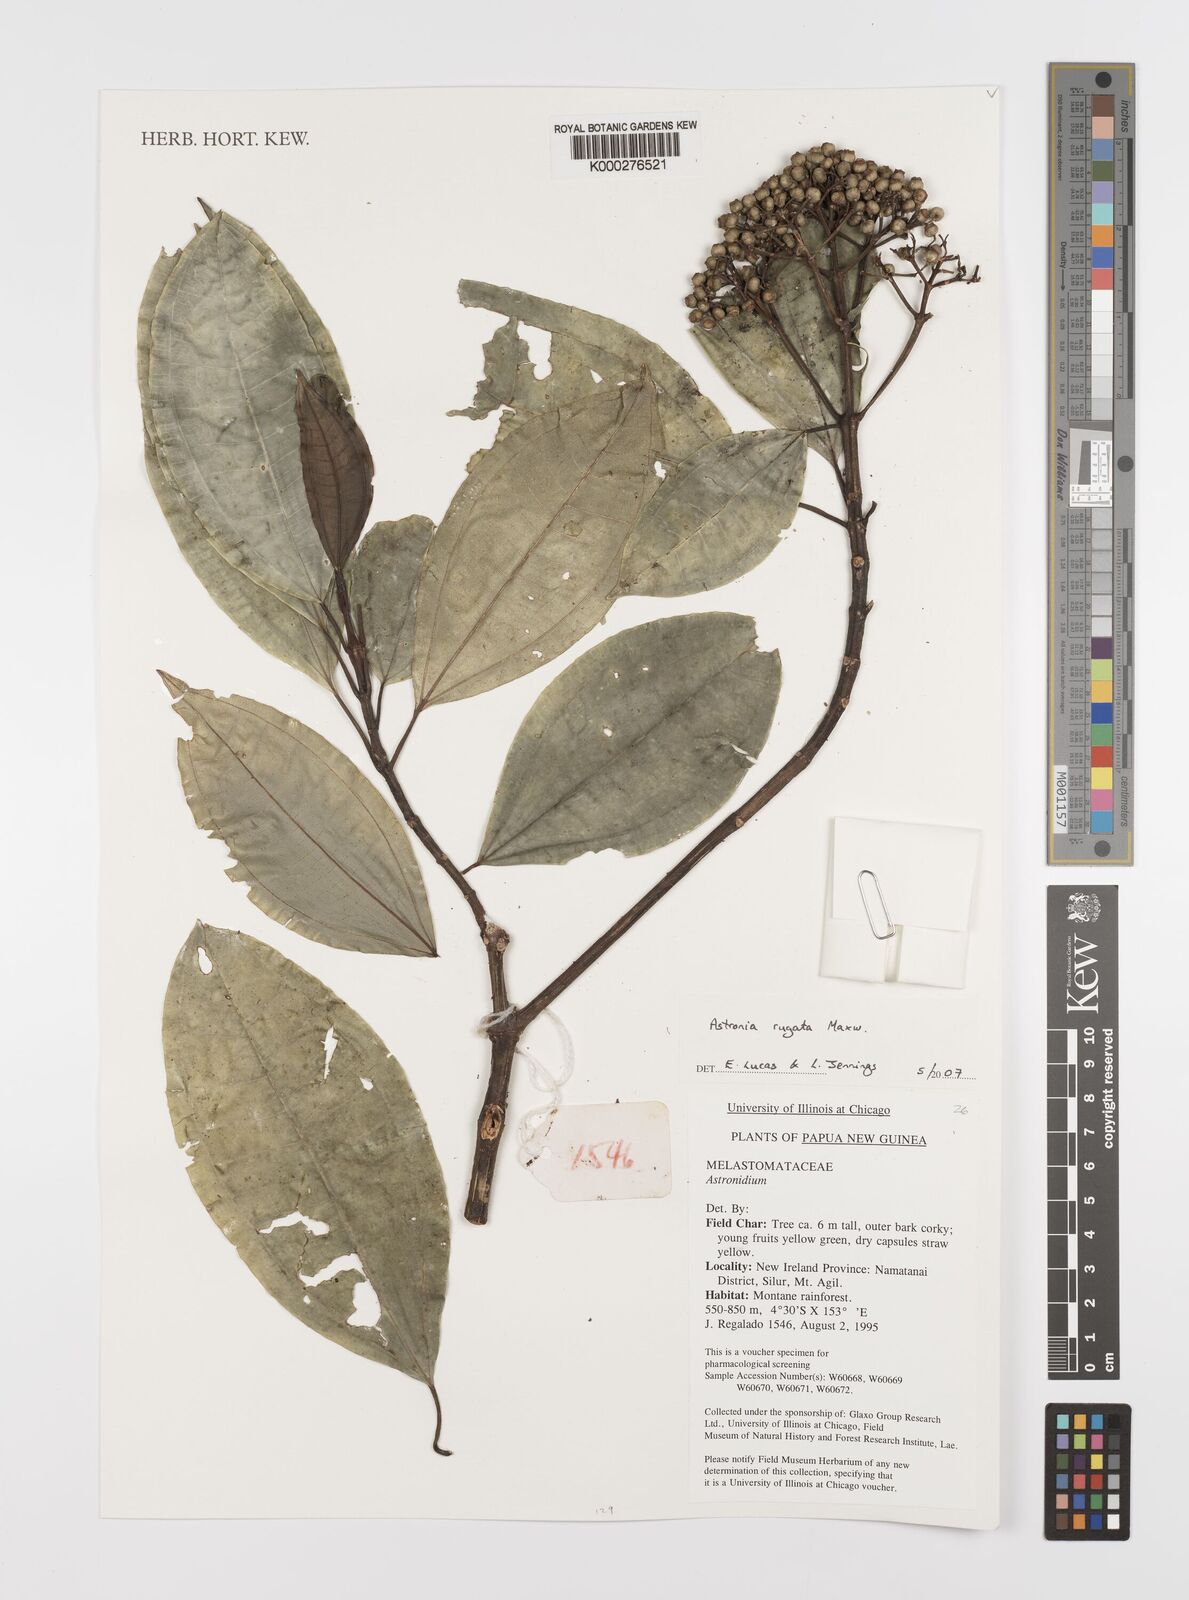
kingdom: Plantae
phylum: Tracheophyta
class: Magnoliopsida
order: Myrtales
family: Melastomataceae
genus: Astronia
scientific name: Astronia rugata
